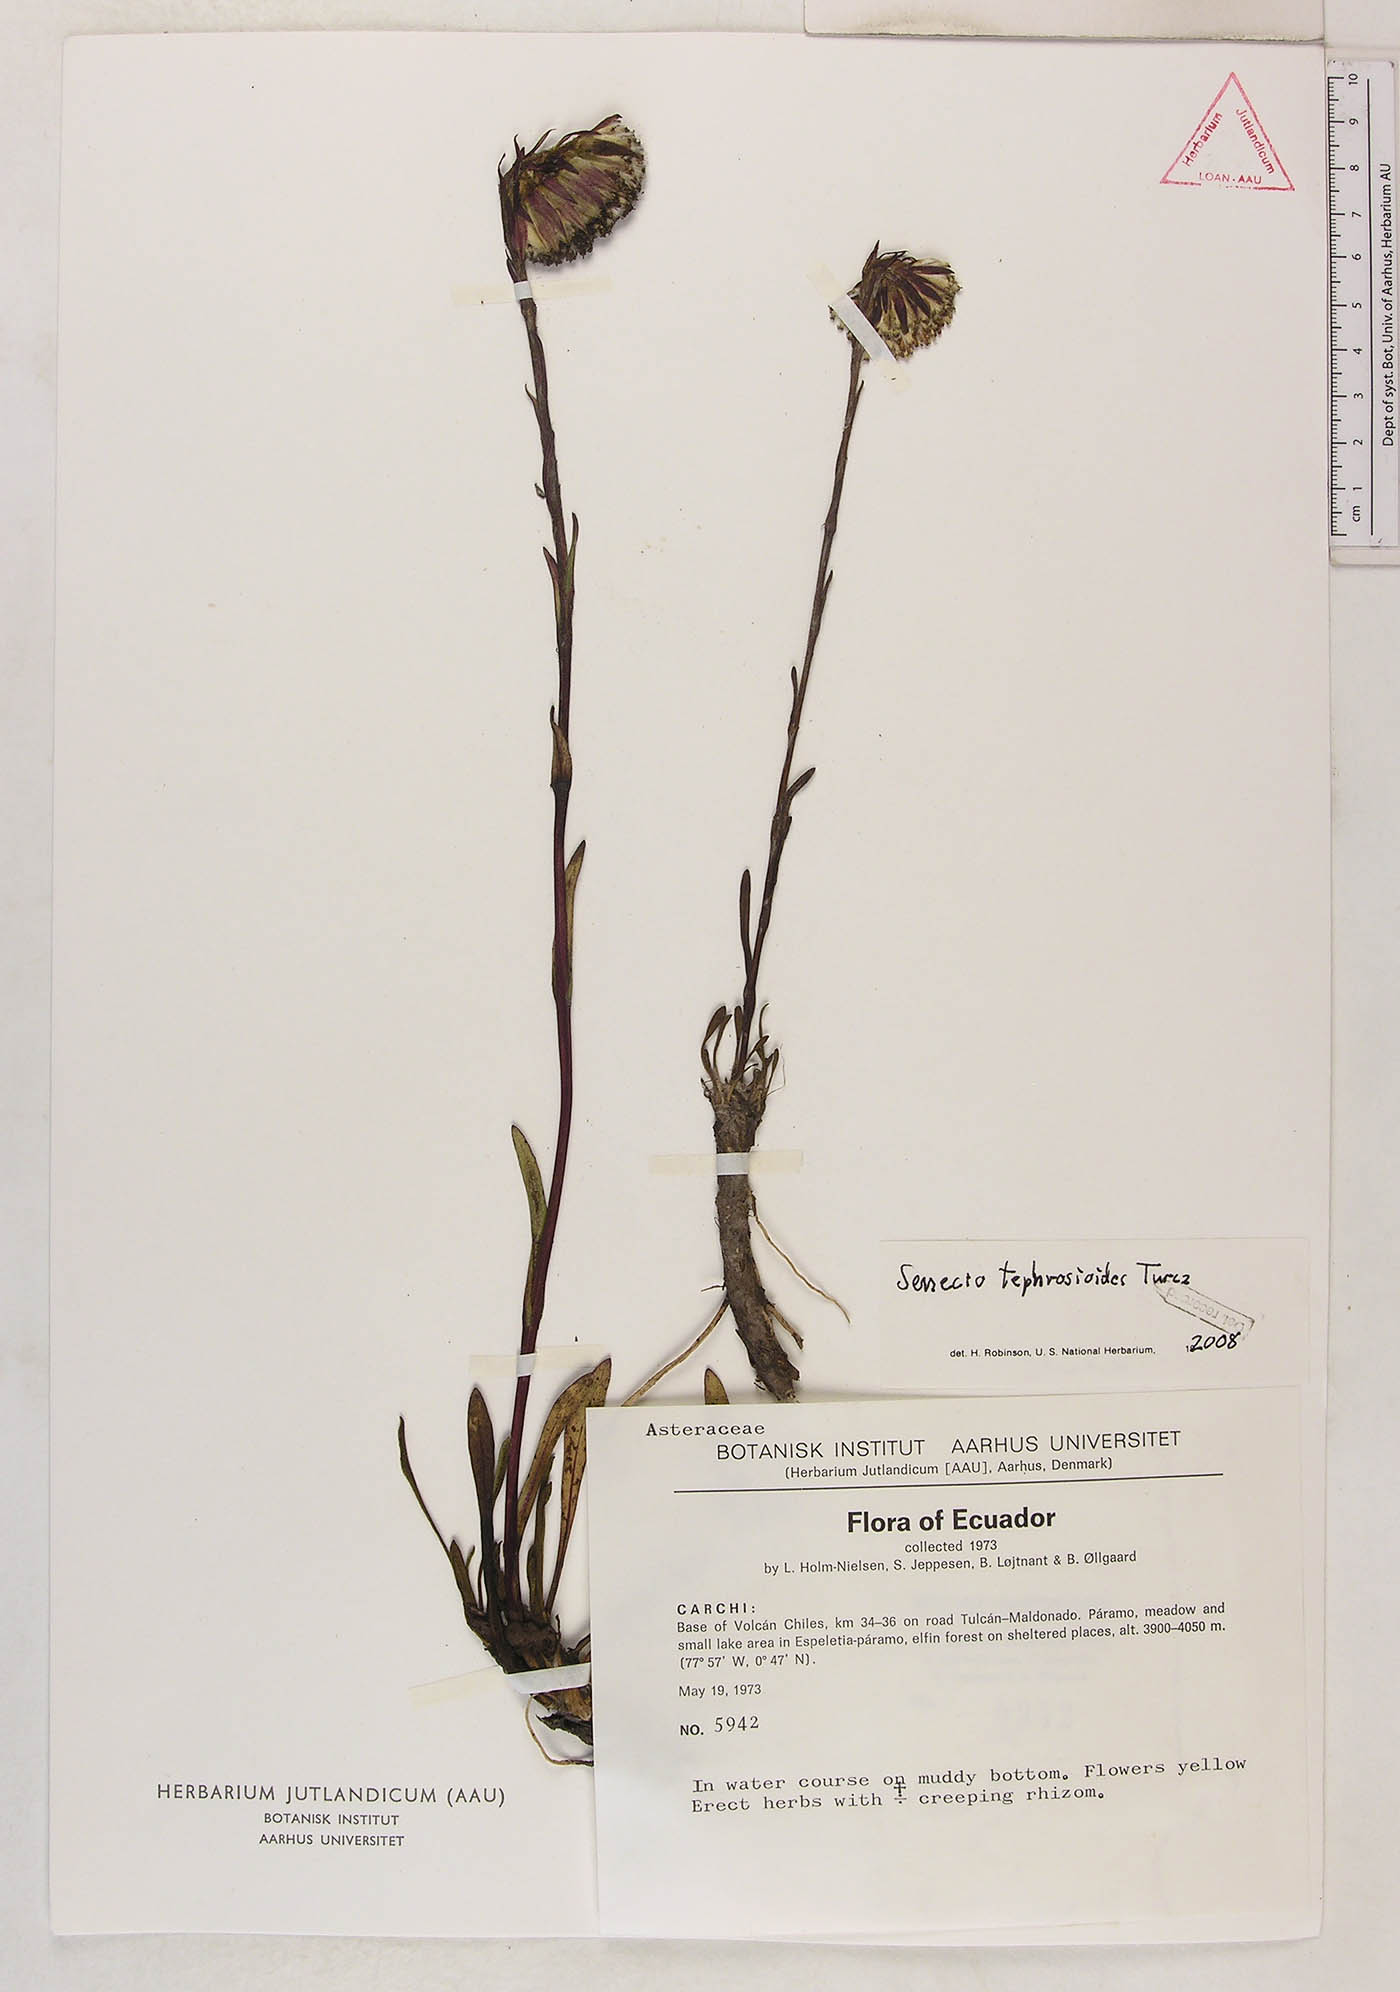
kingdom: Plantae
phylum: Tracheophyta
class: Magnoliopsida
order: Asterales
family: Asteraceae
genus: Senecio
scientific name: Senecio tephrosioides
